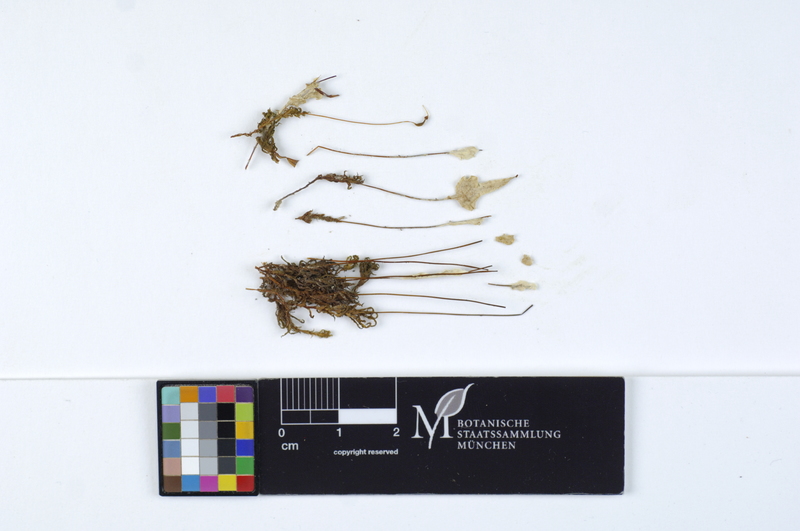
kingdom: Plantae
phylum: Tracheophyta
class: Magnoliopsida
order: Fagales
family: Fagaceae
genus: Fagus
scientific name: Fagus sylvatica
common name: Beech
